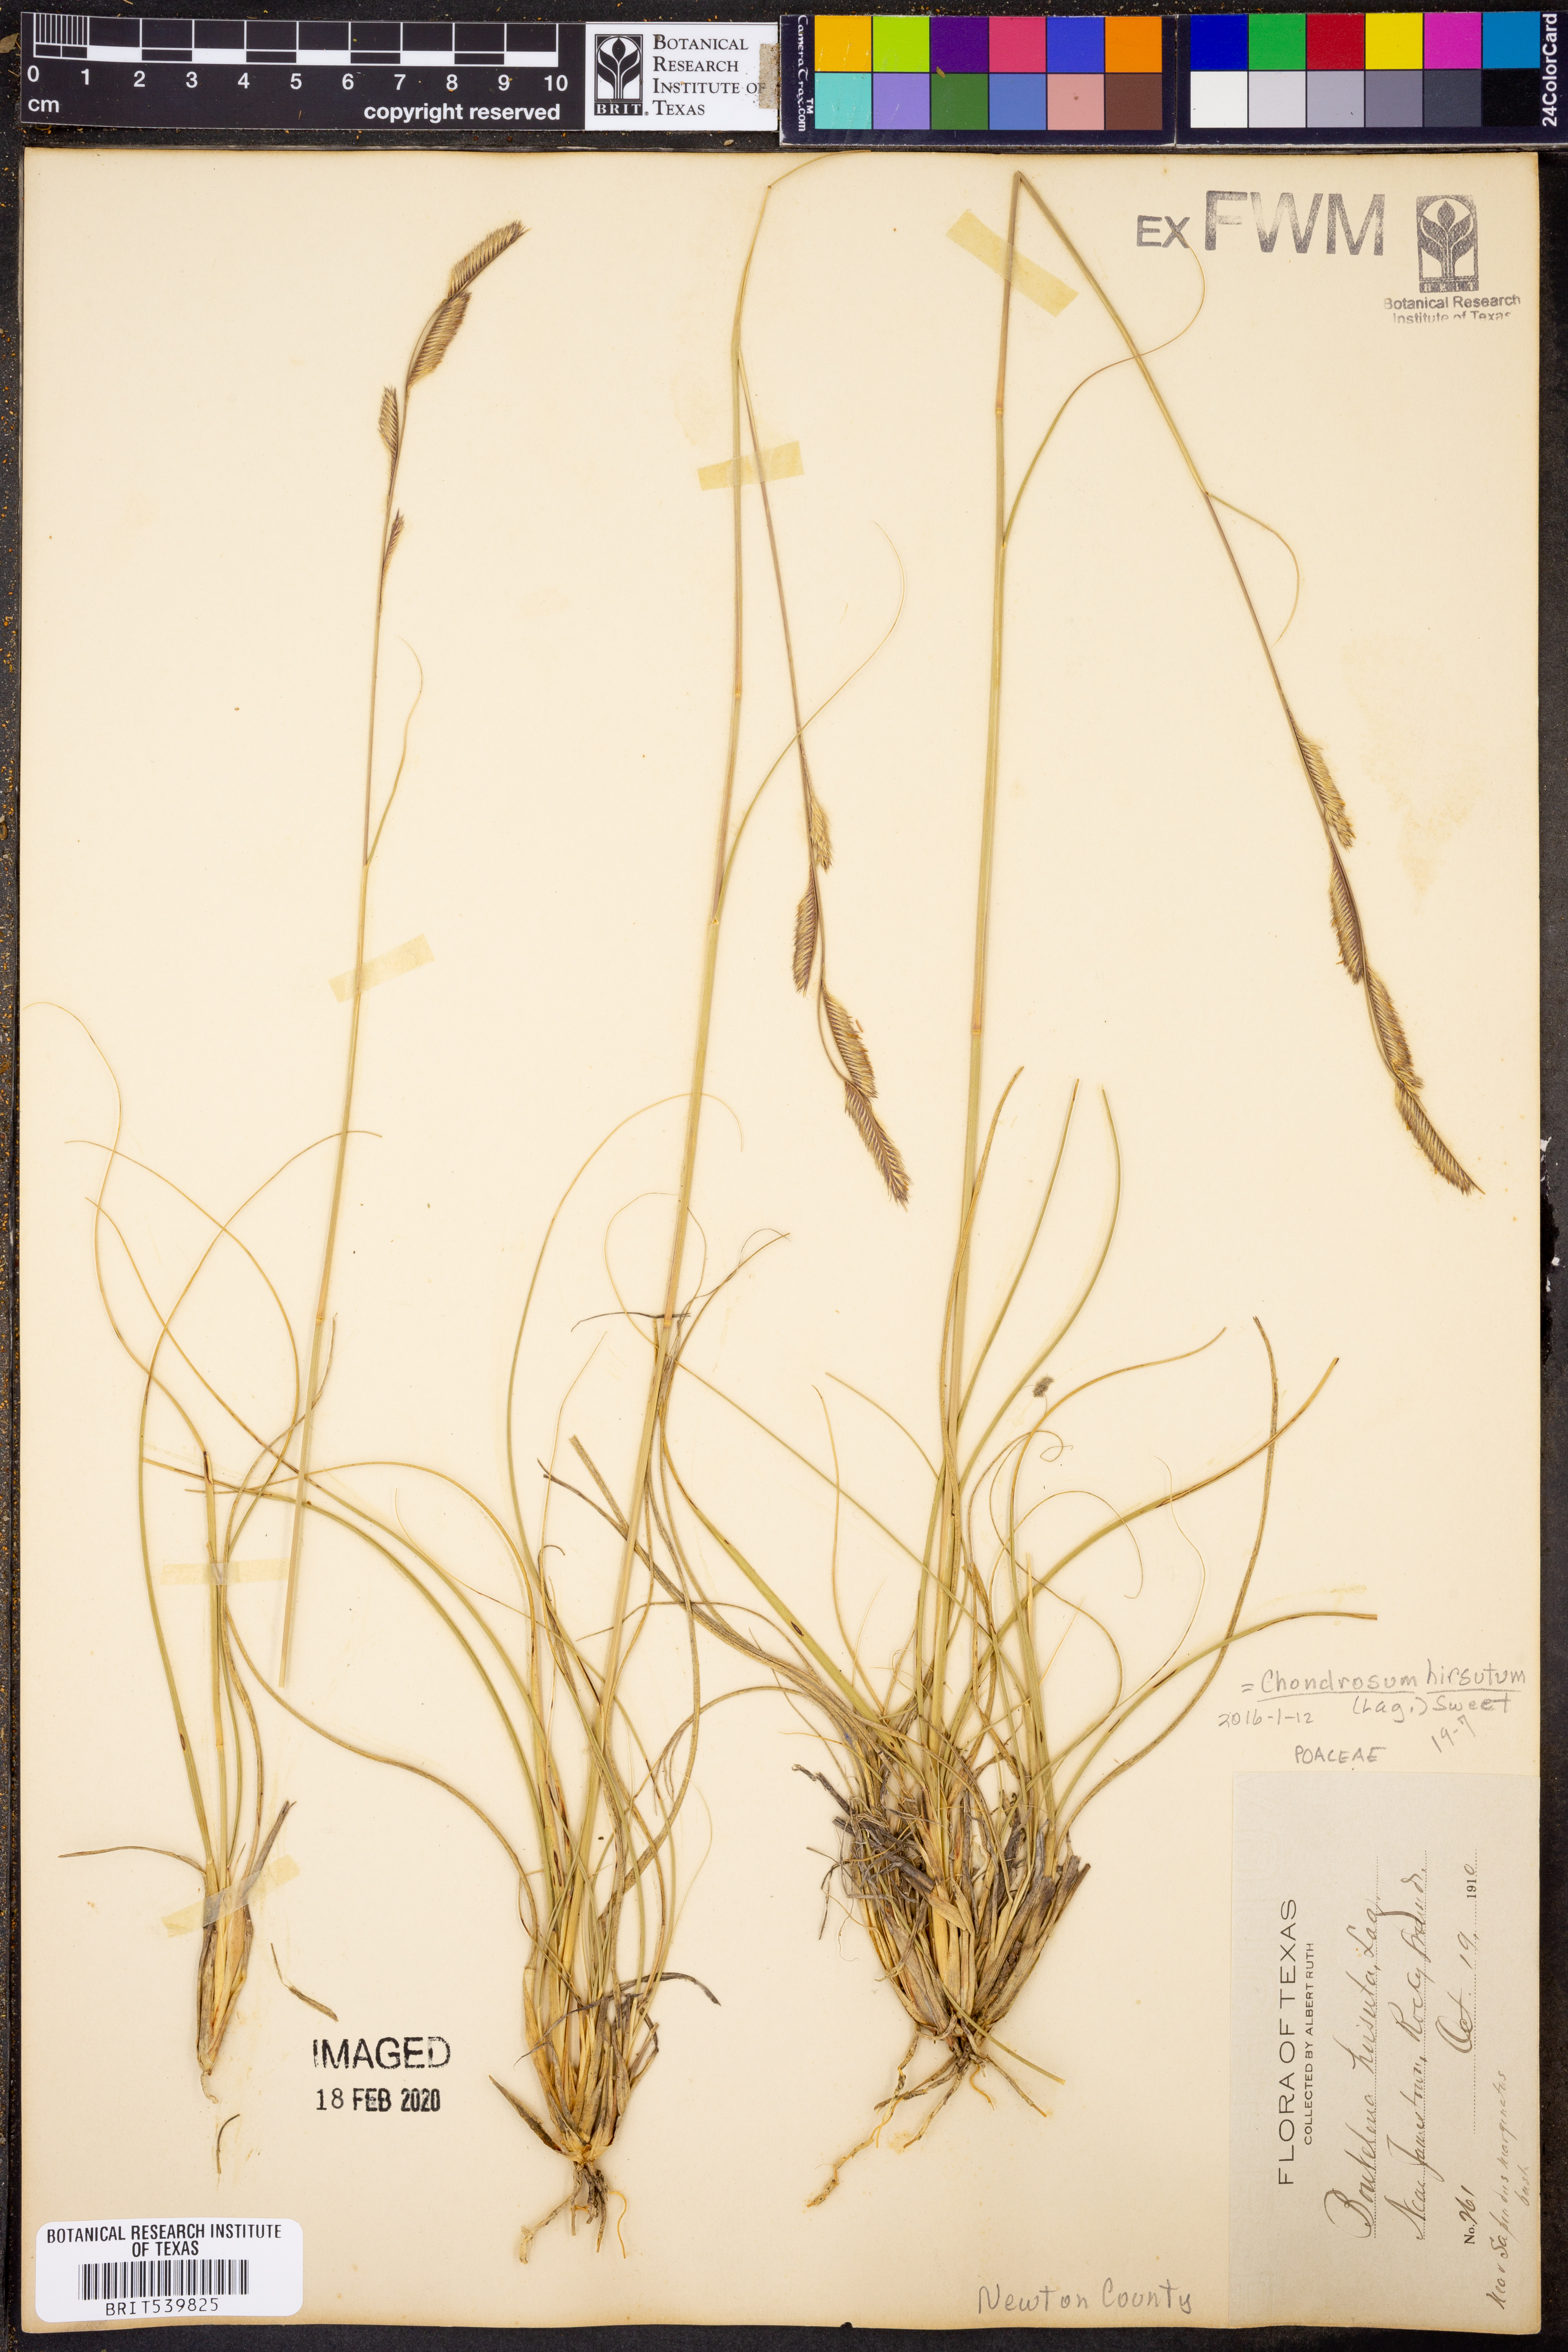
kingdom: Plantae
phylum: Tracheophyta
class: Liliopsida
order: Poales
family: Poaceae
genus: Bouteloua
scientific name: Bouteloua hirsuta
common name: Hairy grama
